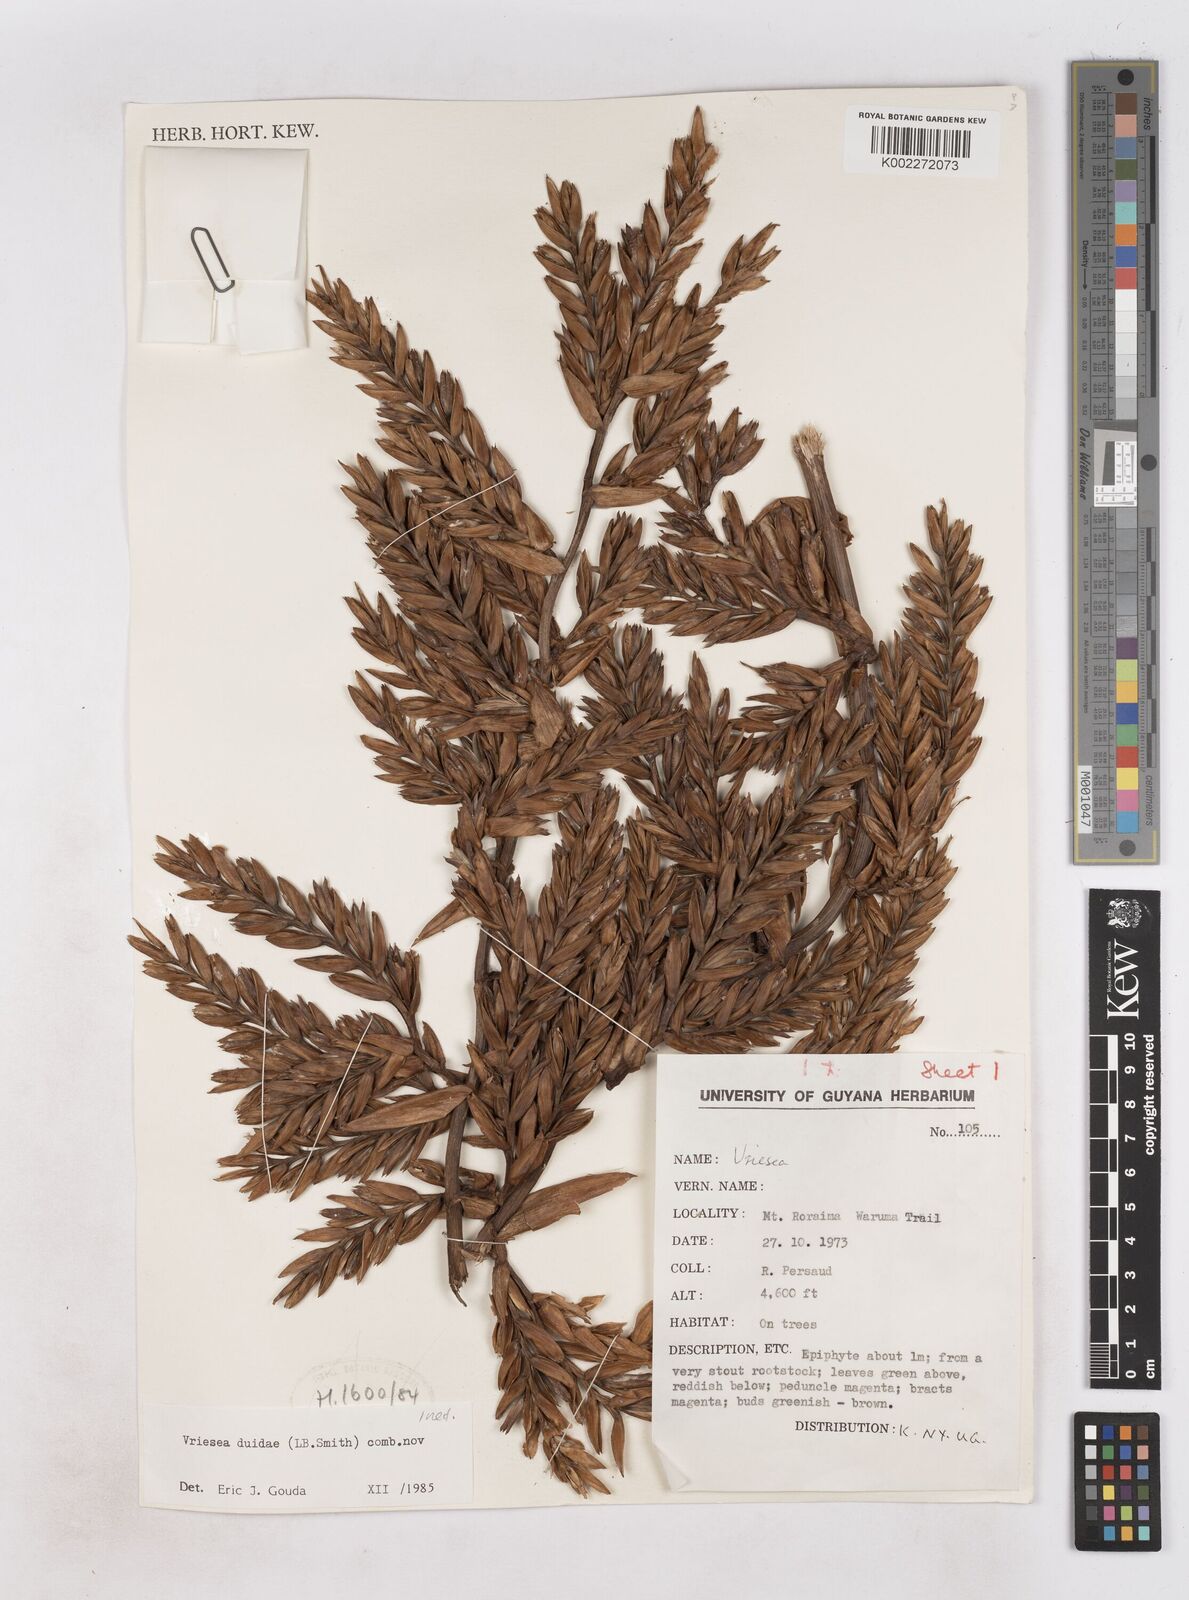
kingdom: Plantae
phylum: Tracheophyta
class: Liliopsida
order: Poales
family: Bromeliaceae
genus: Vriesea
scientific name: Vriesea duidae
